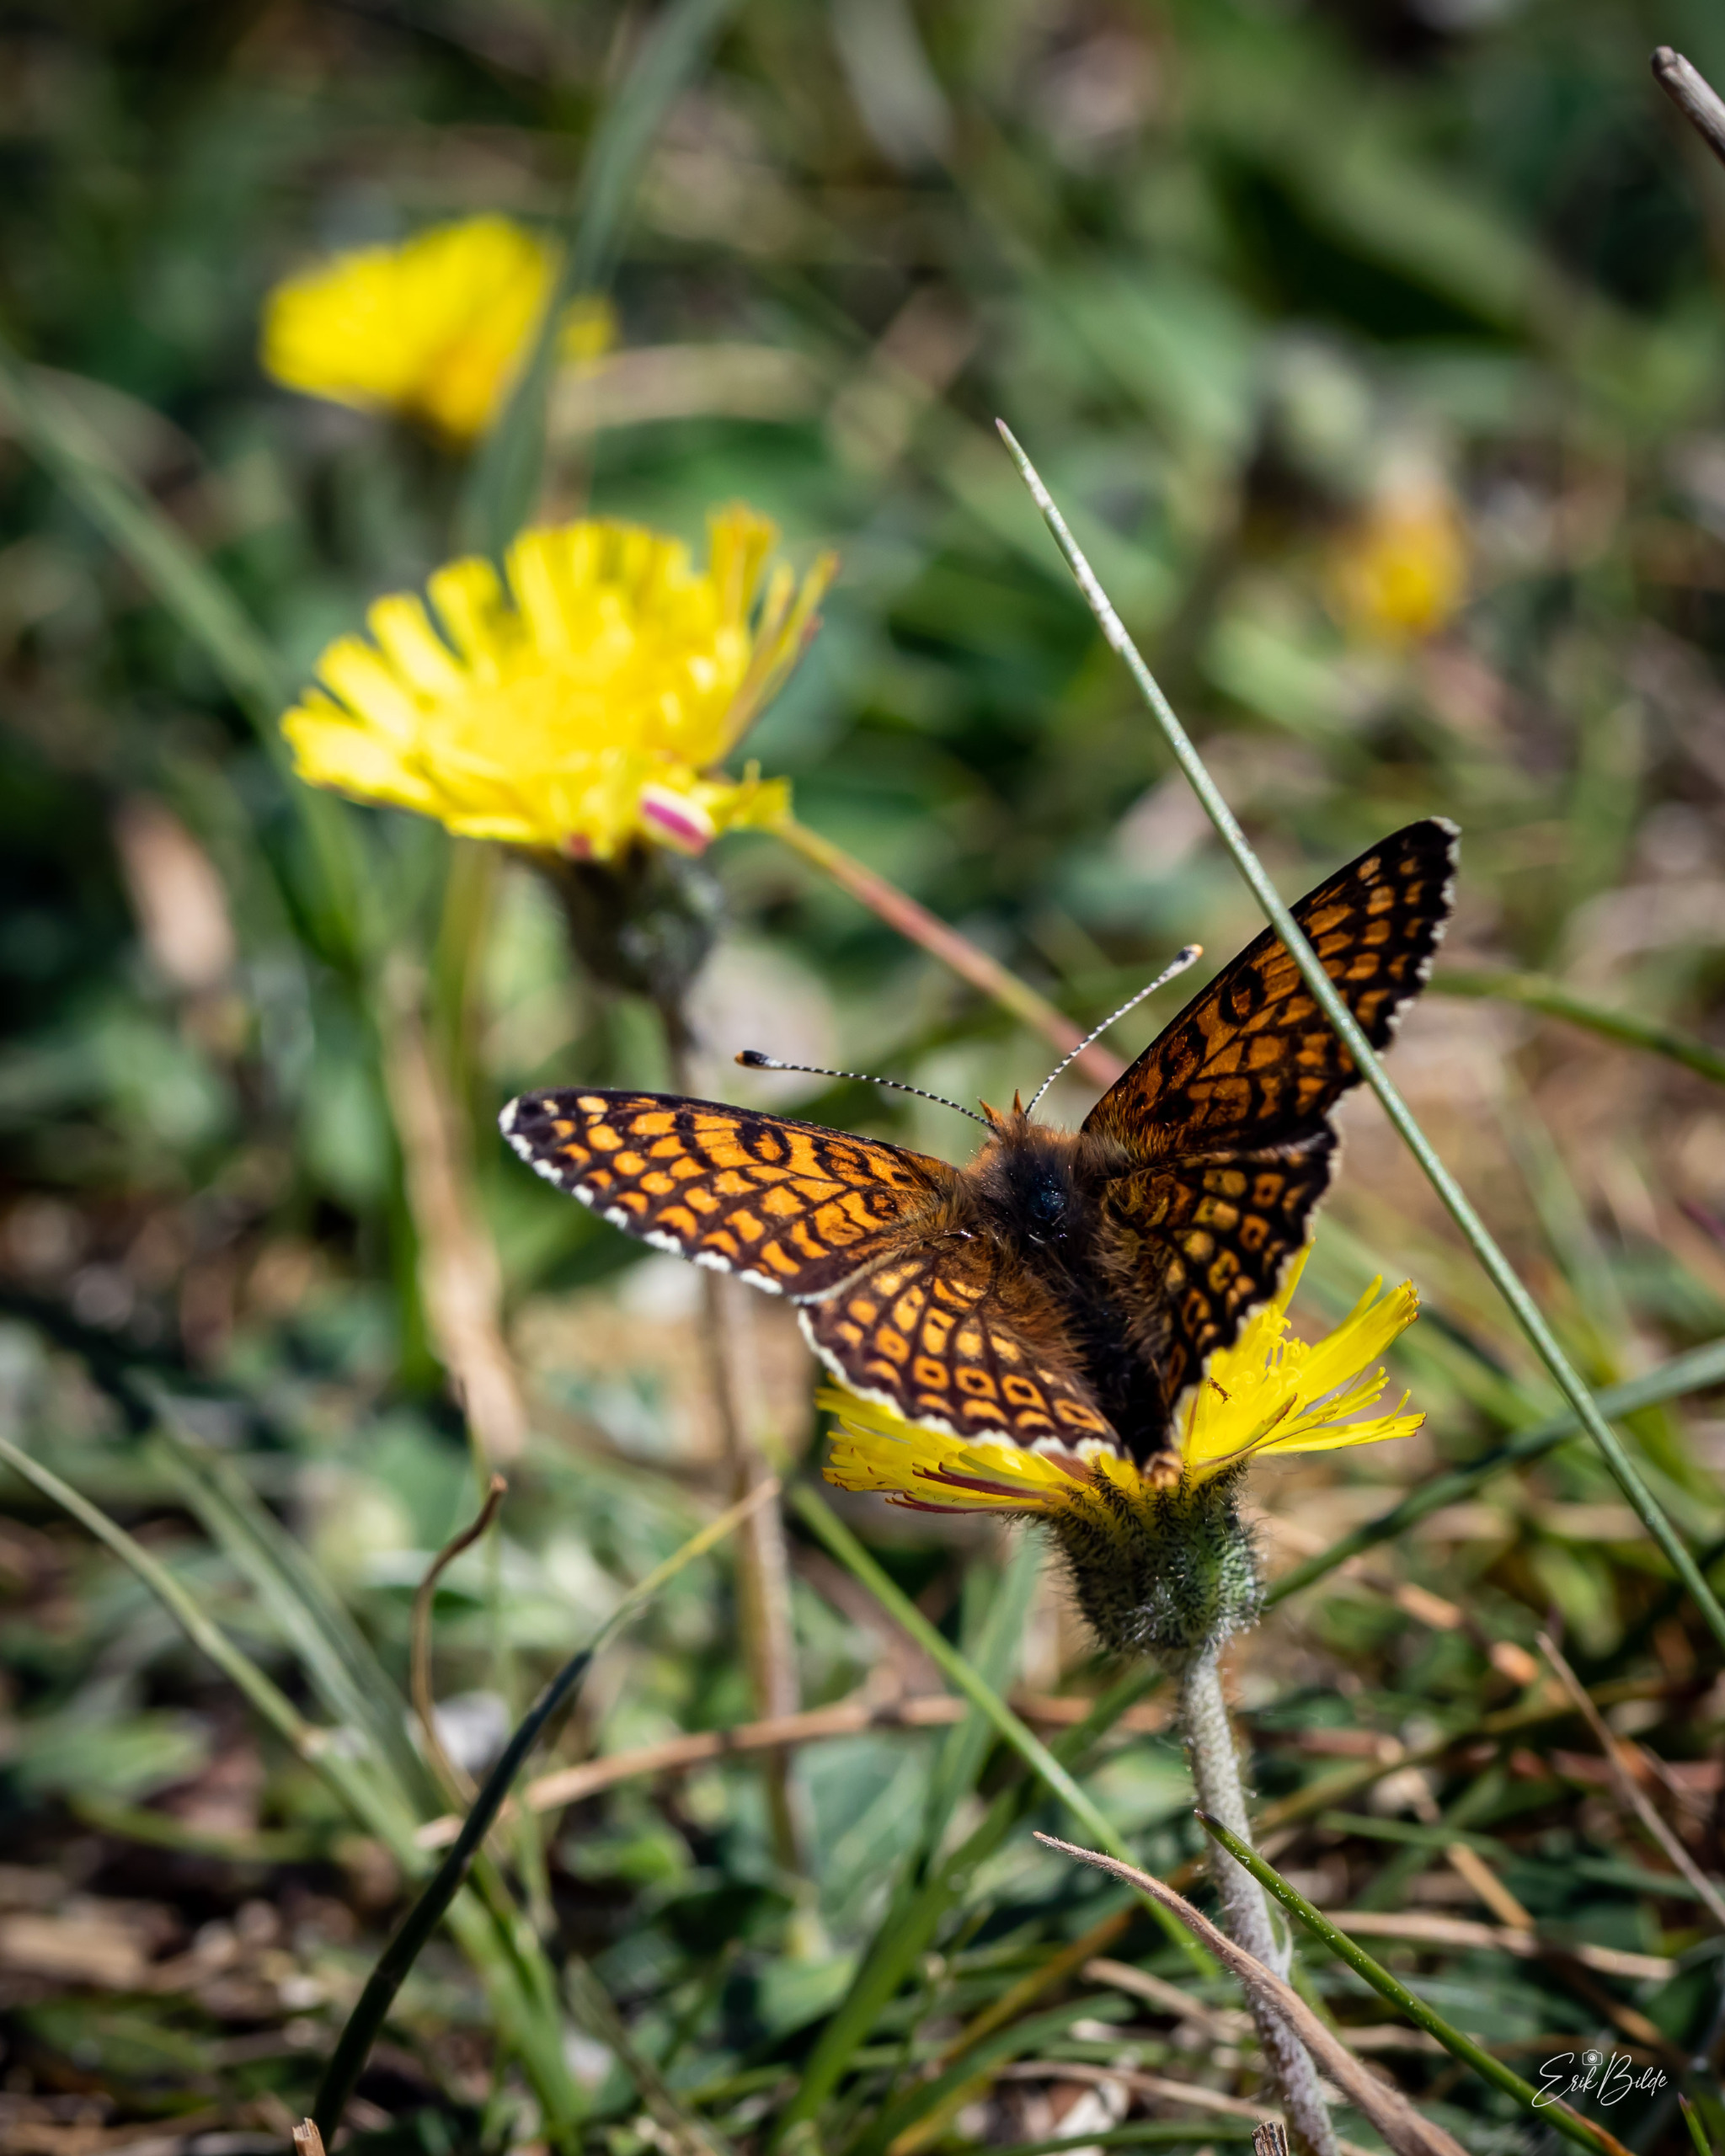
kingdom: Animalia
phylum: Arthropoda
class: Insecta
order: Lepidoptera
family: Nymphalidae
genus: Melitaea
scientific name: Melitaea cinxia
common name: Okkergul pletvinge
